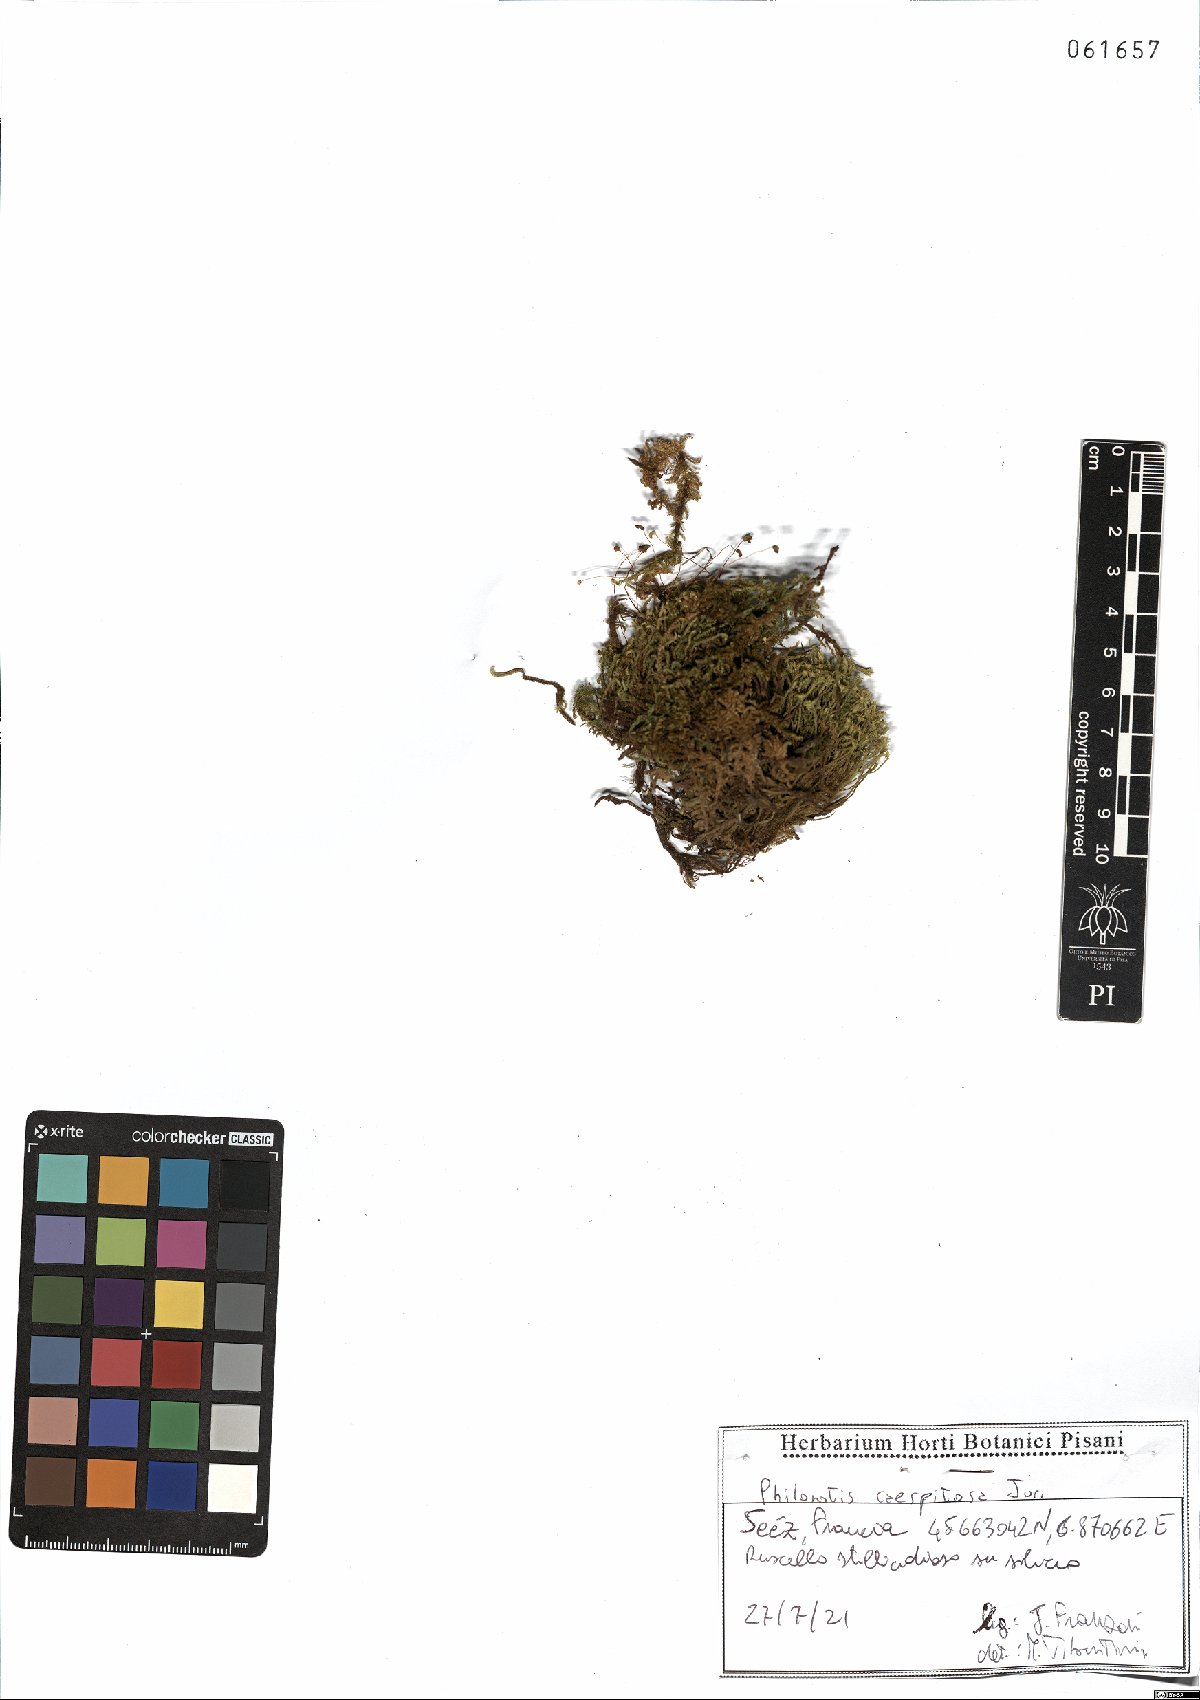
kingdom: Plantae
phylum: Bryophyta
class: Bryopsida
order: Bartramiales
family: Bartramiaceae
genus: Philonotis
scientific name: Philonotis caespitosa
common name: Tufted apple-moss
